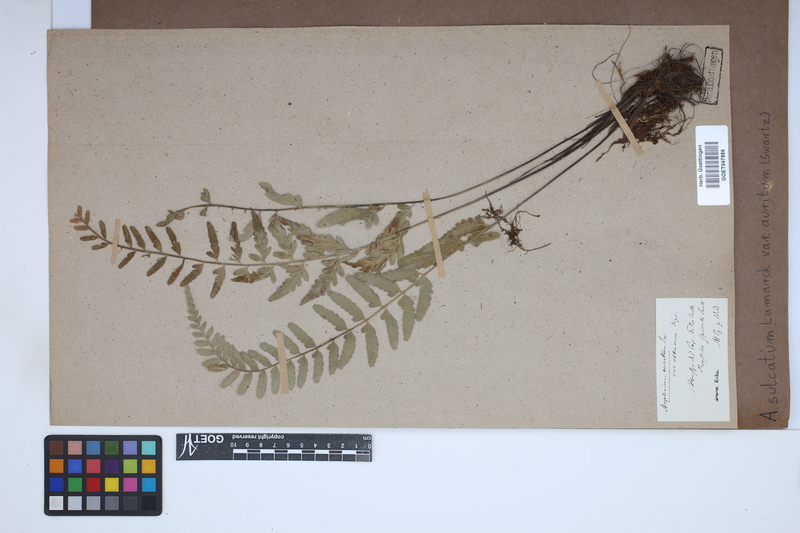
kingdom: Plantae
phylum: Tracheophyta
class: Polypodiopsida
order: Polypodiales
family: Aspleniaceae
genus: Asplenium
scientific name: Asplenium auritum
